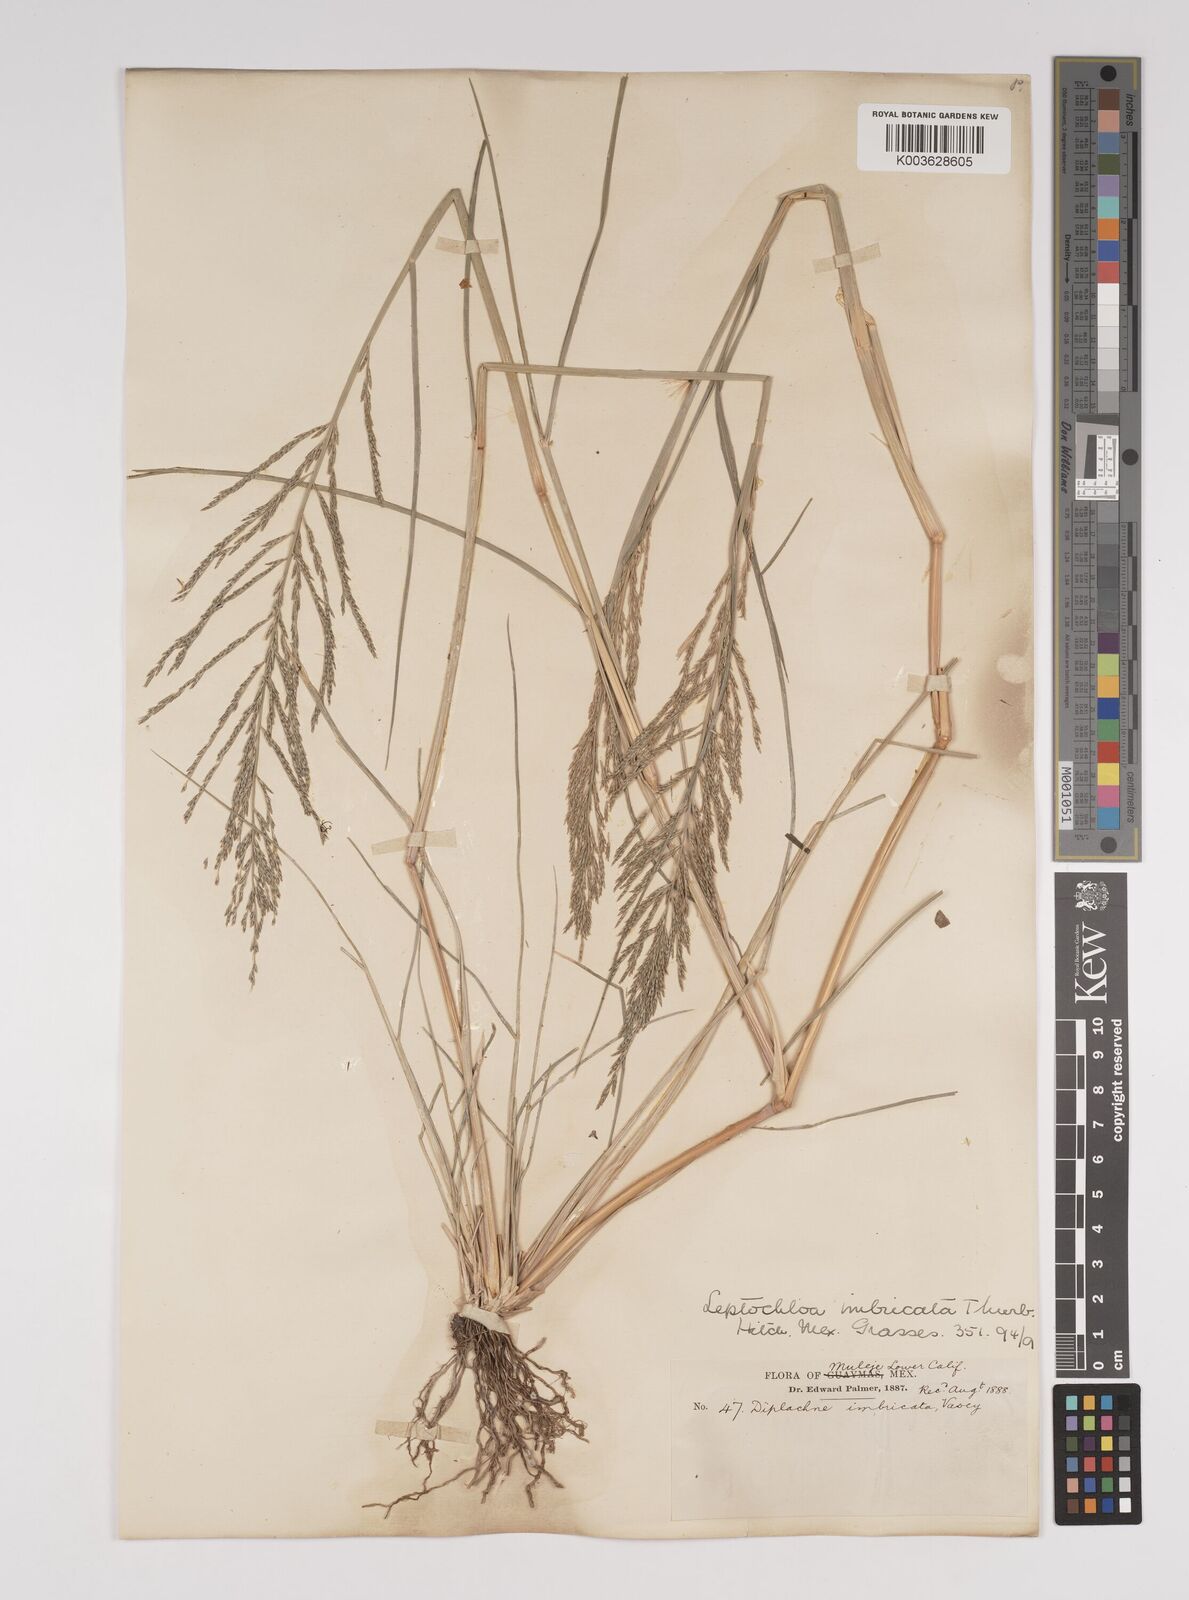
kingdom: Plantae
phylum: Tracheophyta
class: Liliopsida
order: Poales
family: Poaceae
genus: Diplachne
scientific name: Diplachne fusca
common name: Brown beetle grass
